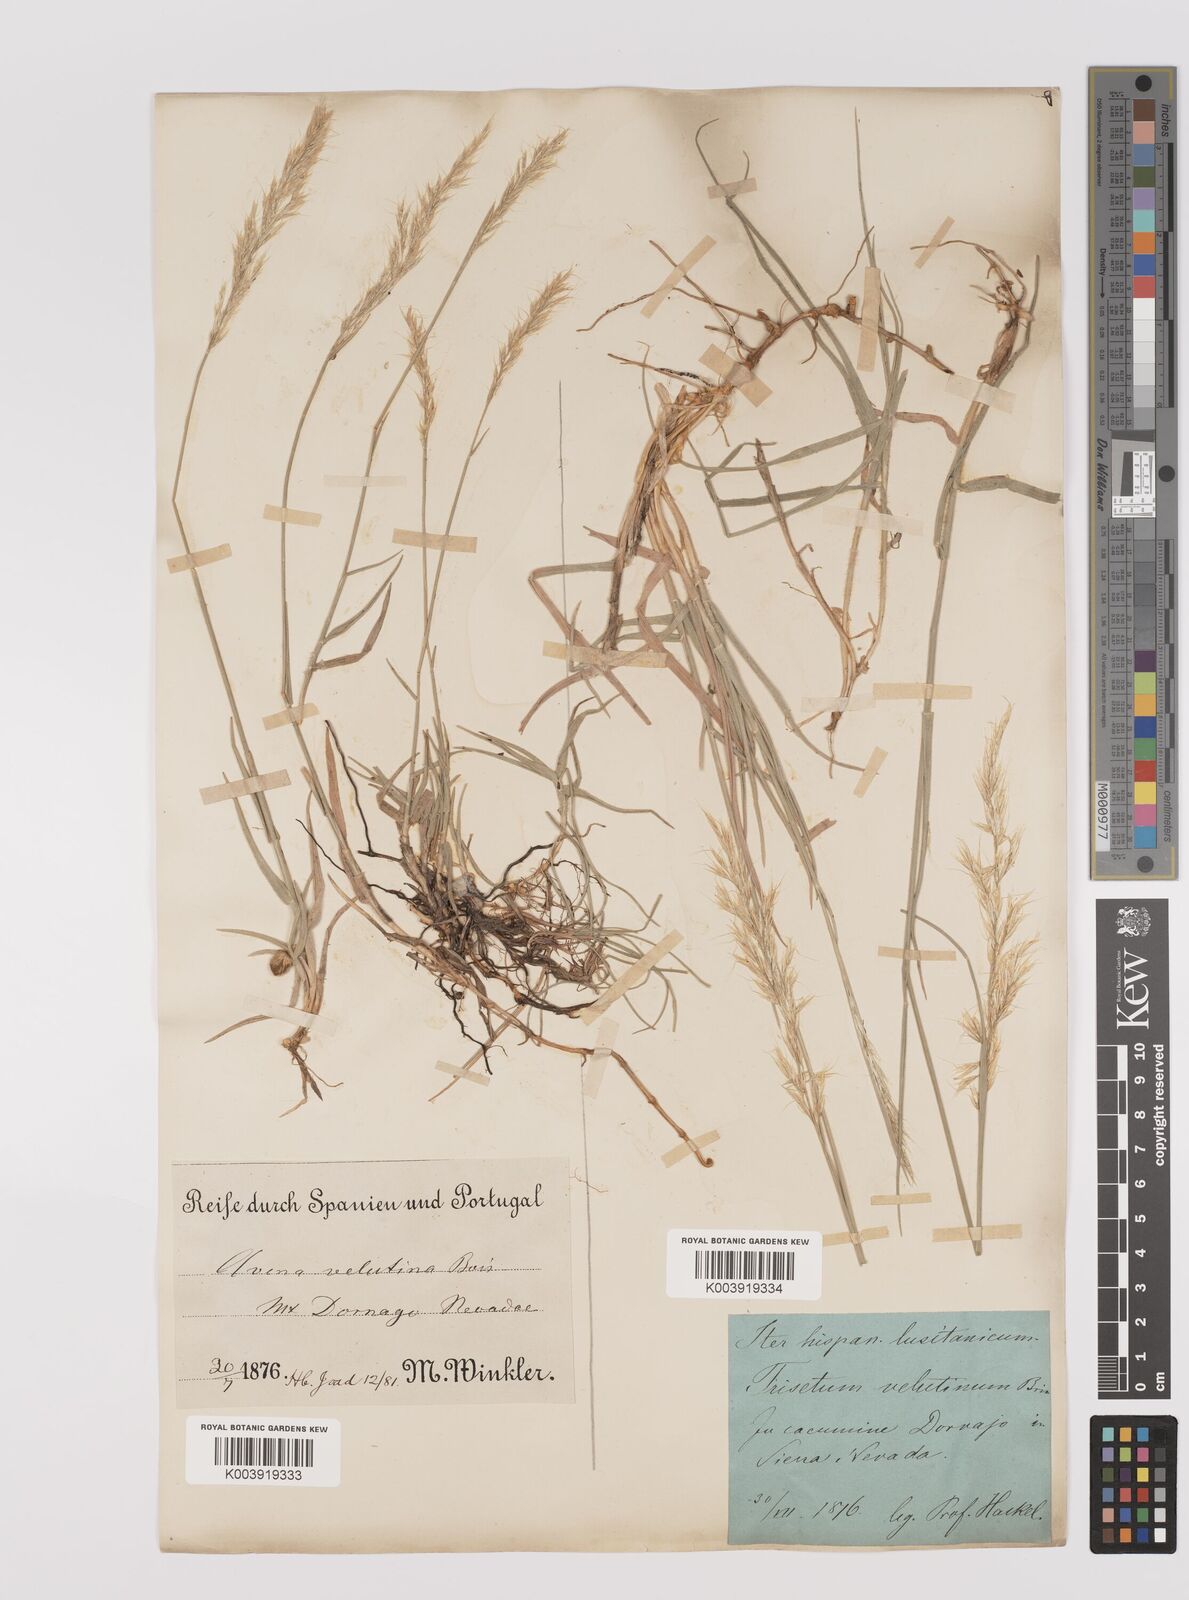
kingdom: Plantae
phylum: Tracheophyta
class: Liliopsida
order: Poales
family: Poaceae
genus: Trisetum
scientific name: Trisetum velutinum
